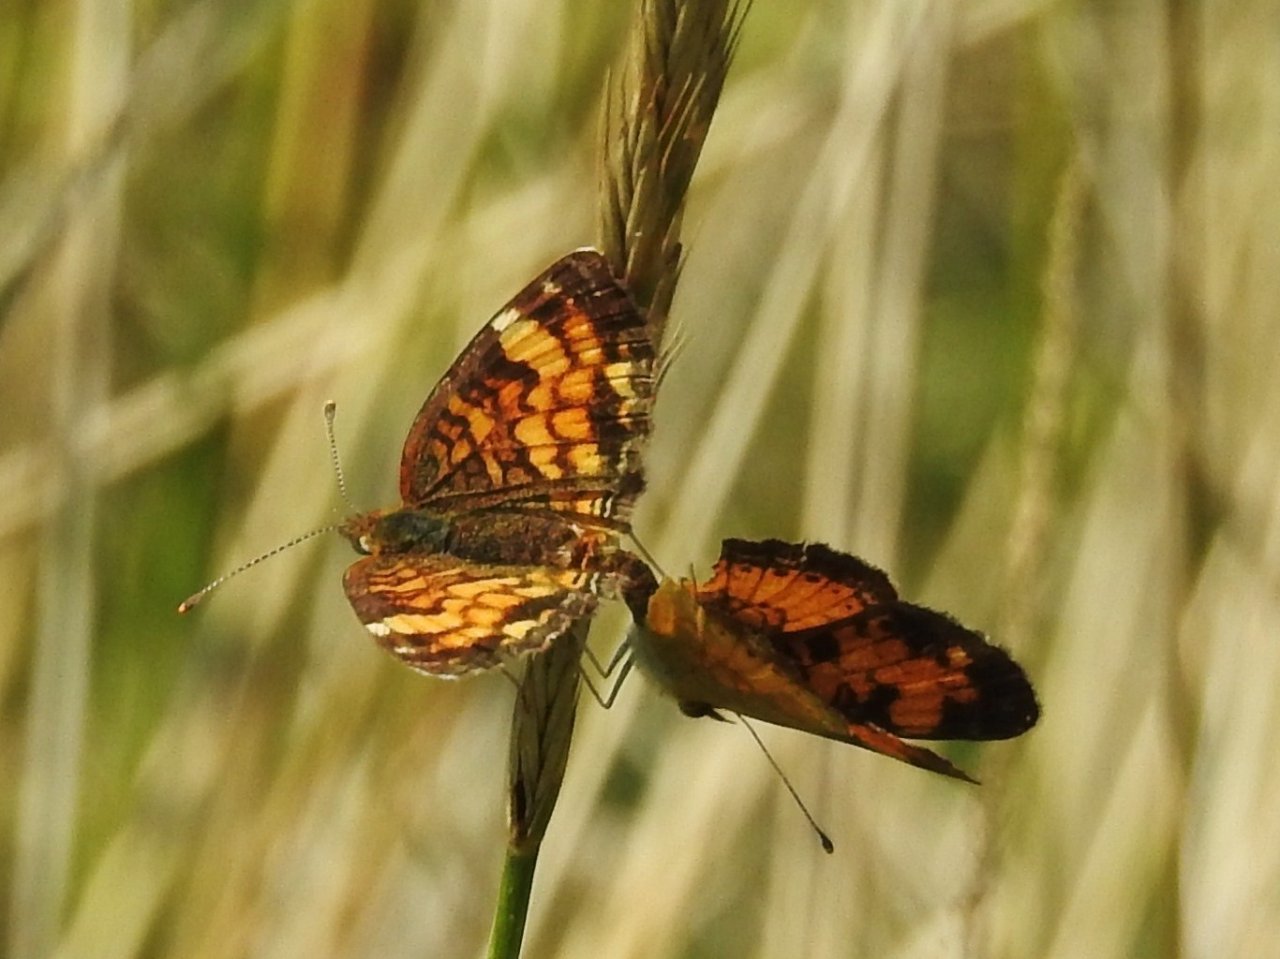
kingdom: Animalia
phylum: Arthropoda
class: Insecta
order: Lepidoptera
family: Nymphalidae
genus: Phyciodes
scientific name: Phyciodes tharos
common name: Pearl Crescent
